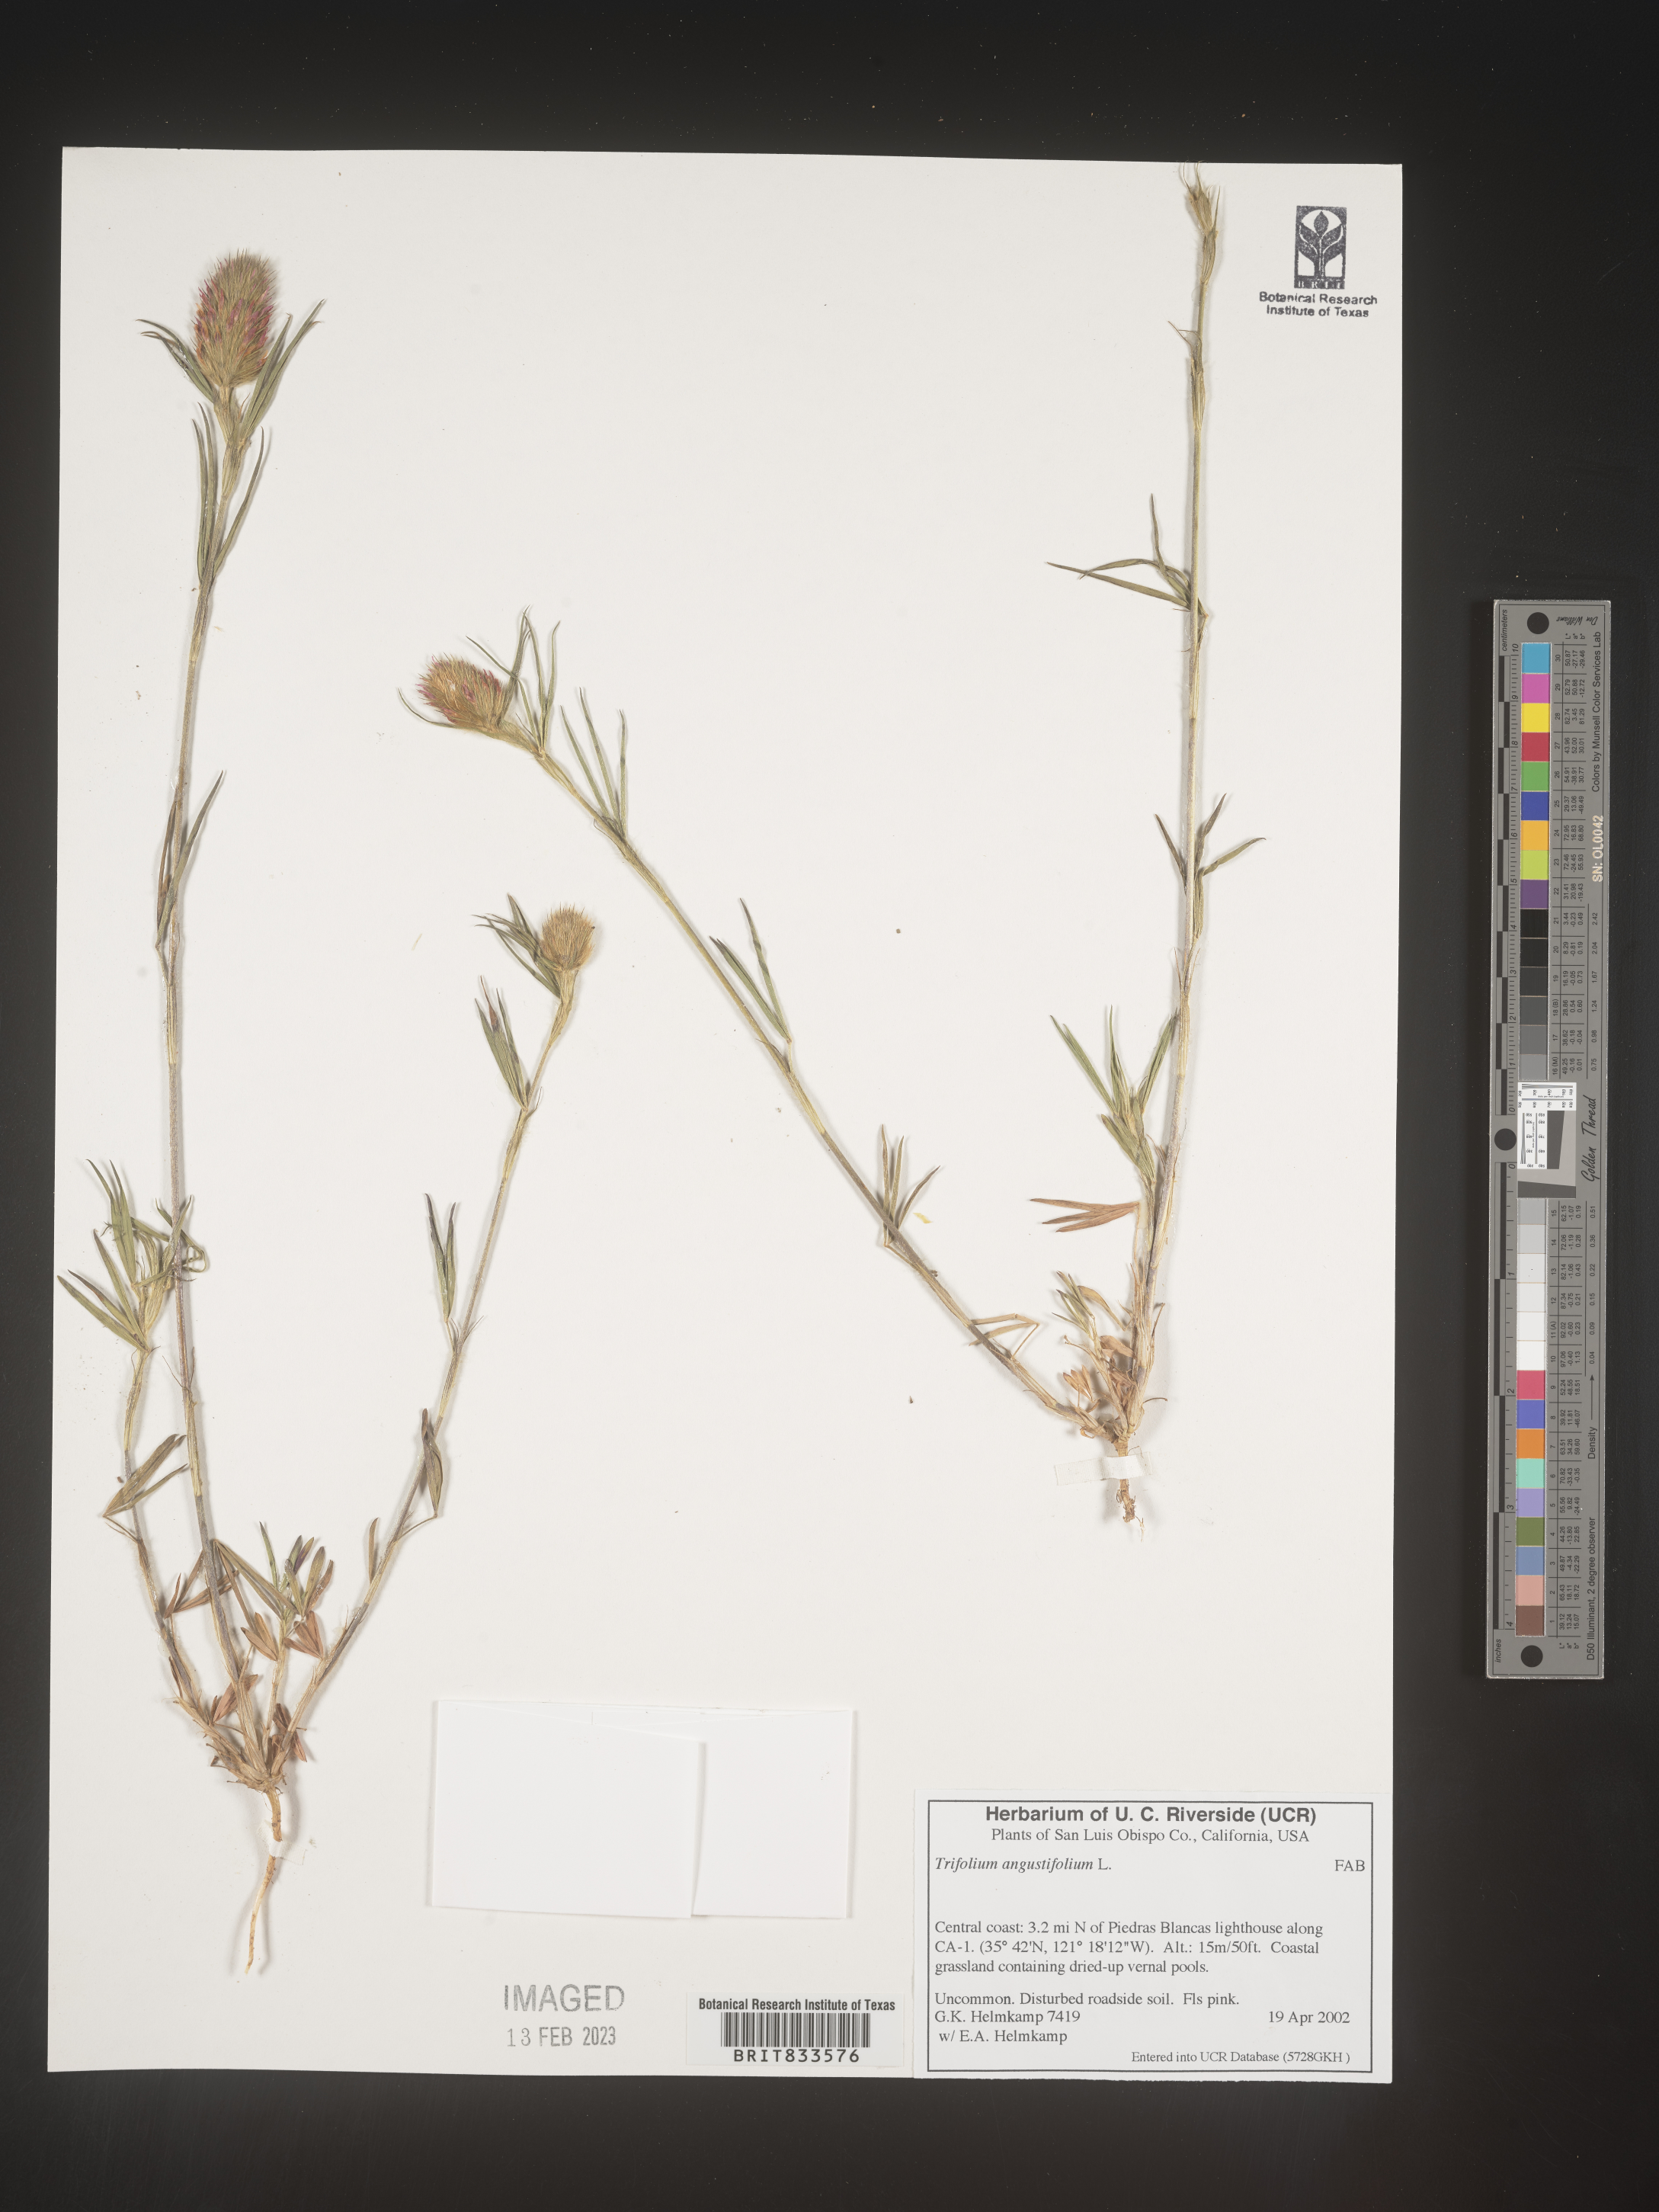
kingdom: Plantae
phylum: Tracheophyta
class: Magnoliopsida
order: Fabales
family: Fabaceae
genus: Trifolium
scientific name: Trifolium
